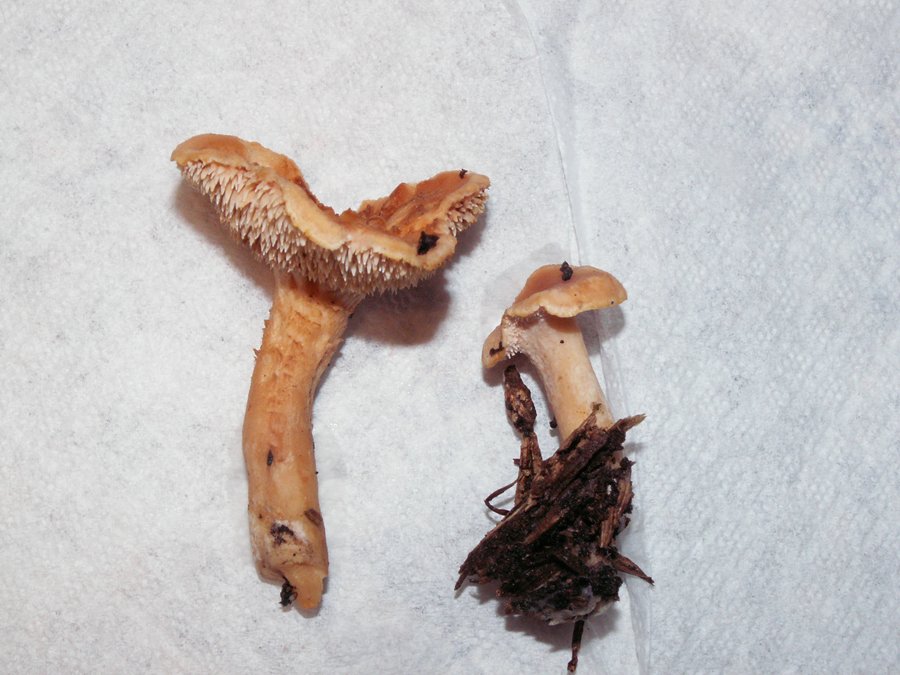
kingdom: Fungi
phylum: Basidiomycota
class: Agaricomycetes
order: Cantharellales
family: Hydnaceae
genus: Hydnum
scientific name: Hydnum rufescens
